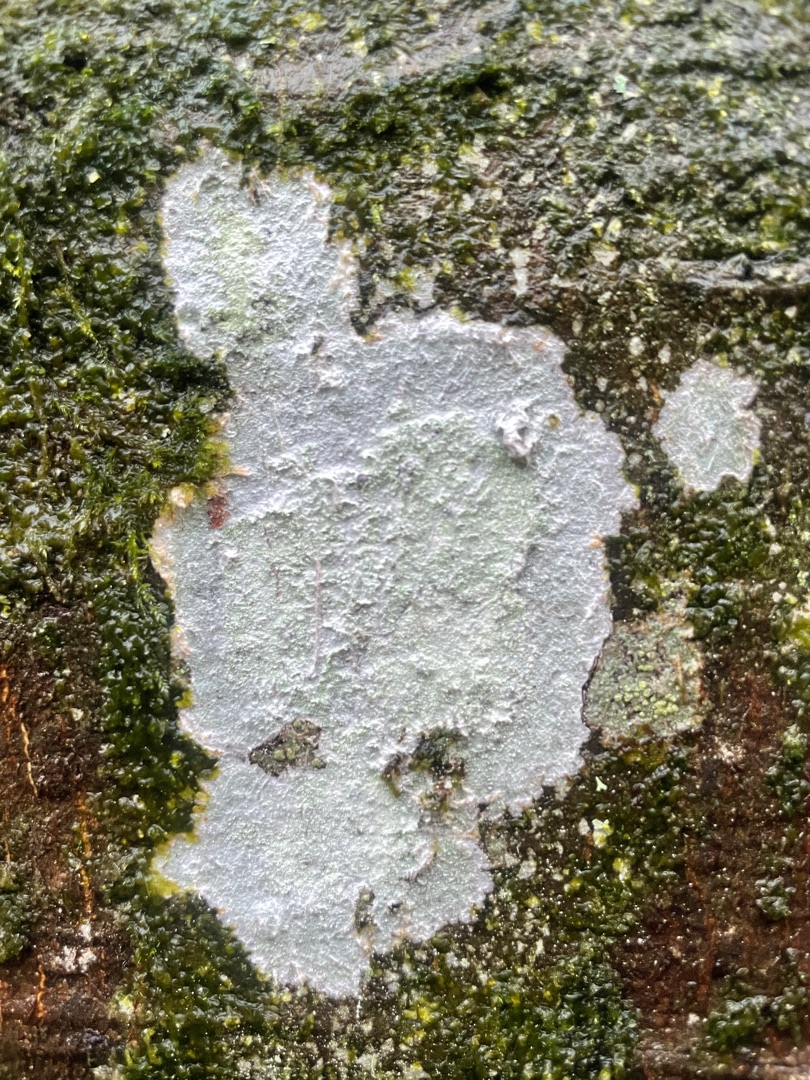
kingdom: Fungi
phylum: Ascomycota
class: Lecanoromycetes
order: Ostropales
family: Phlyctidaceae
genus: Phlyctis
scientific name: Phlyctis argena
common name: Almindelig sølvlav
